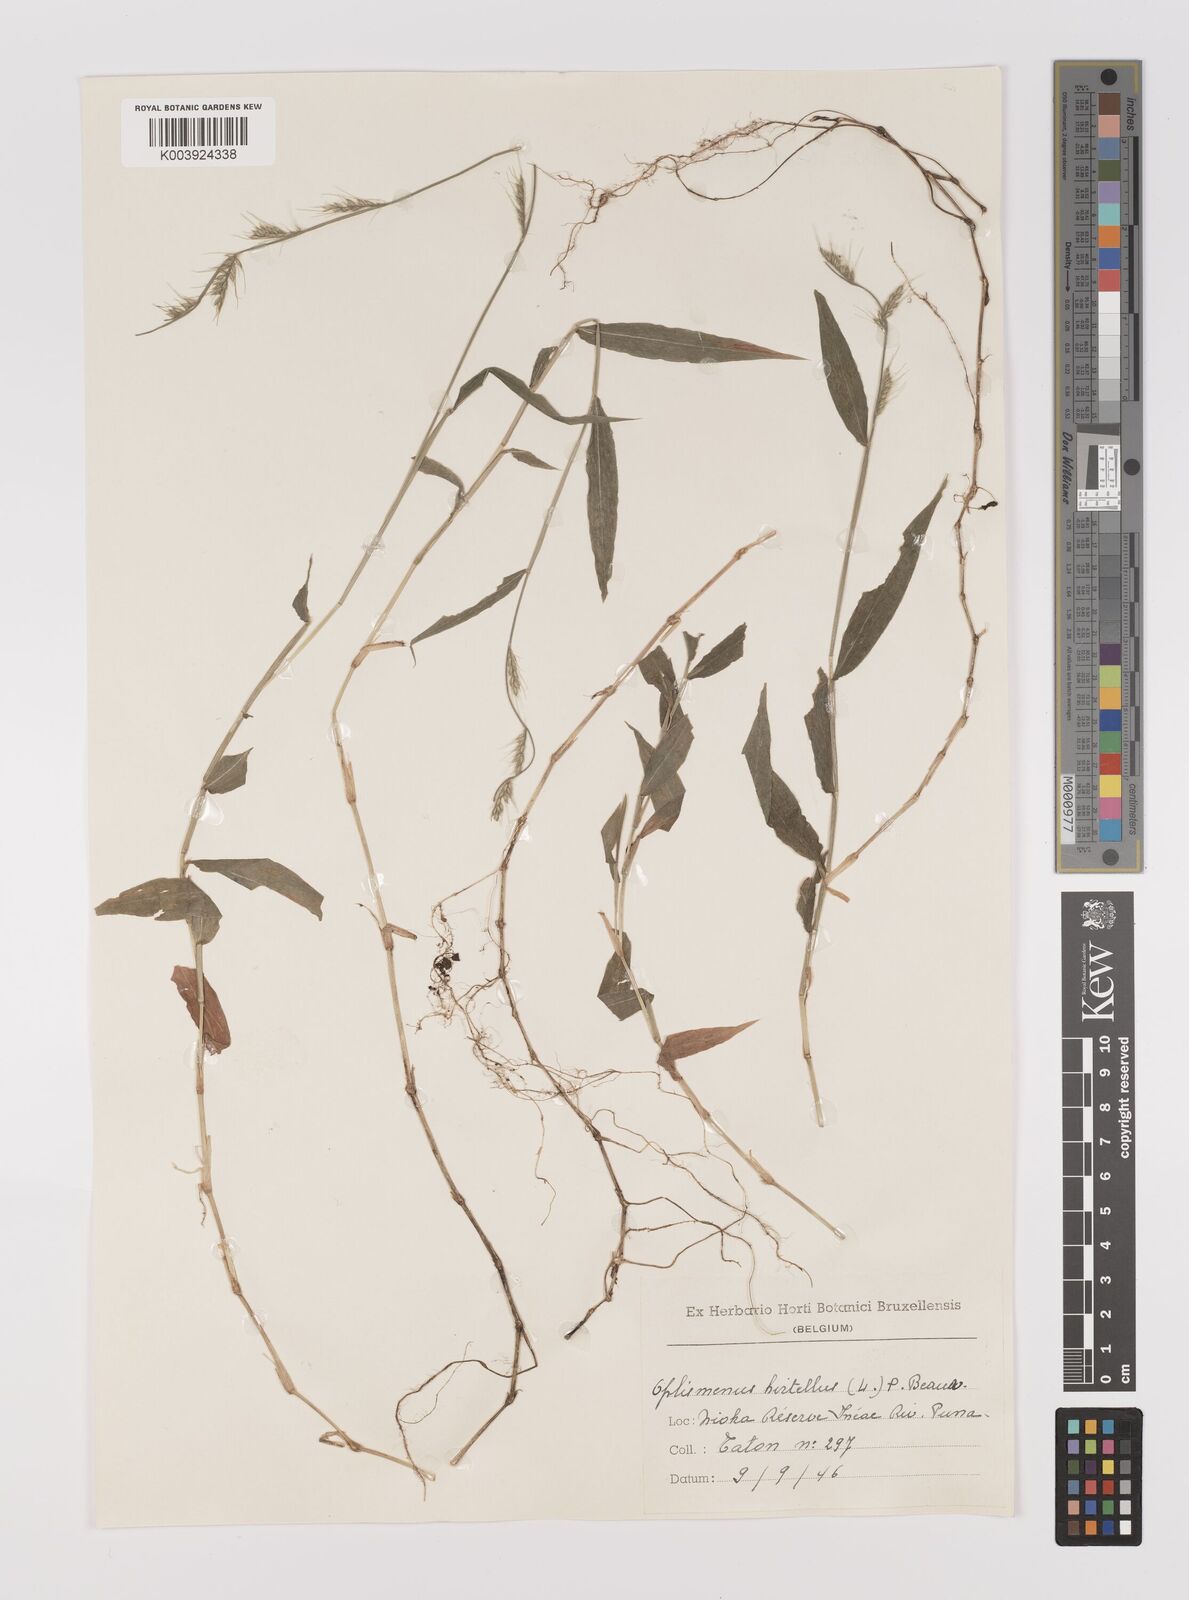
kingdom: Plantae
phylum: Tracheophyta
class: Liliopsida
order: Poales
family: Poaceae
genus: Oplismenus
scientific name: Oplismenus hirtellus
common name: Basketgrass
